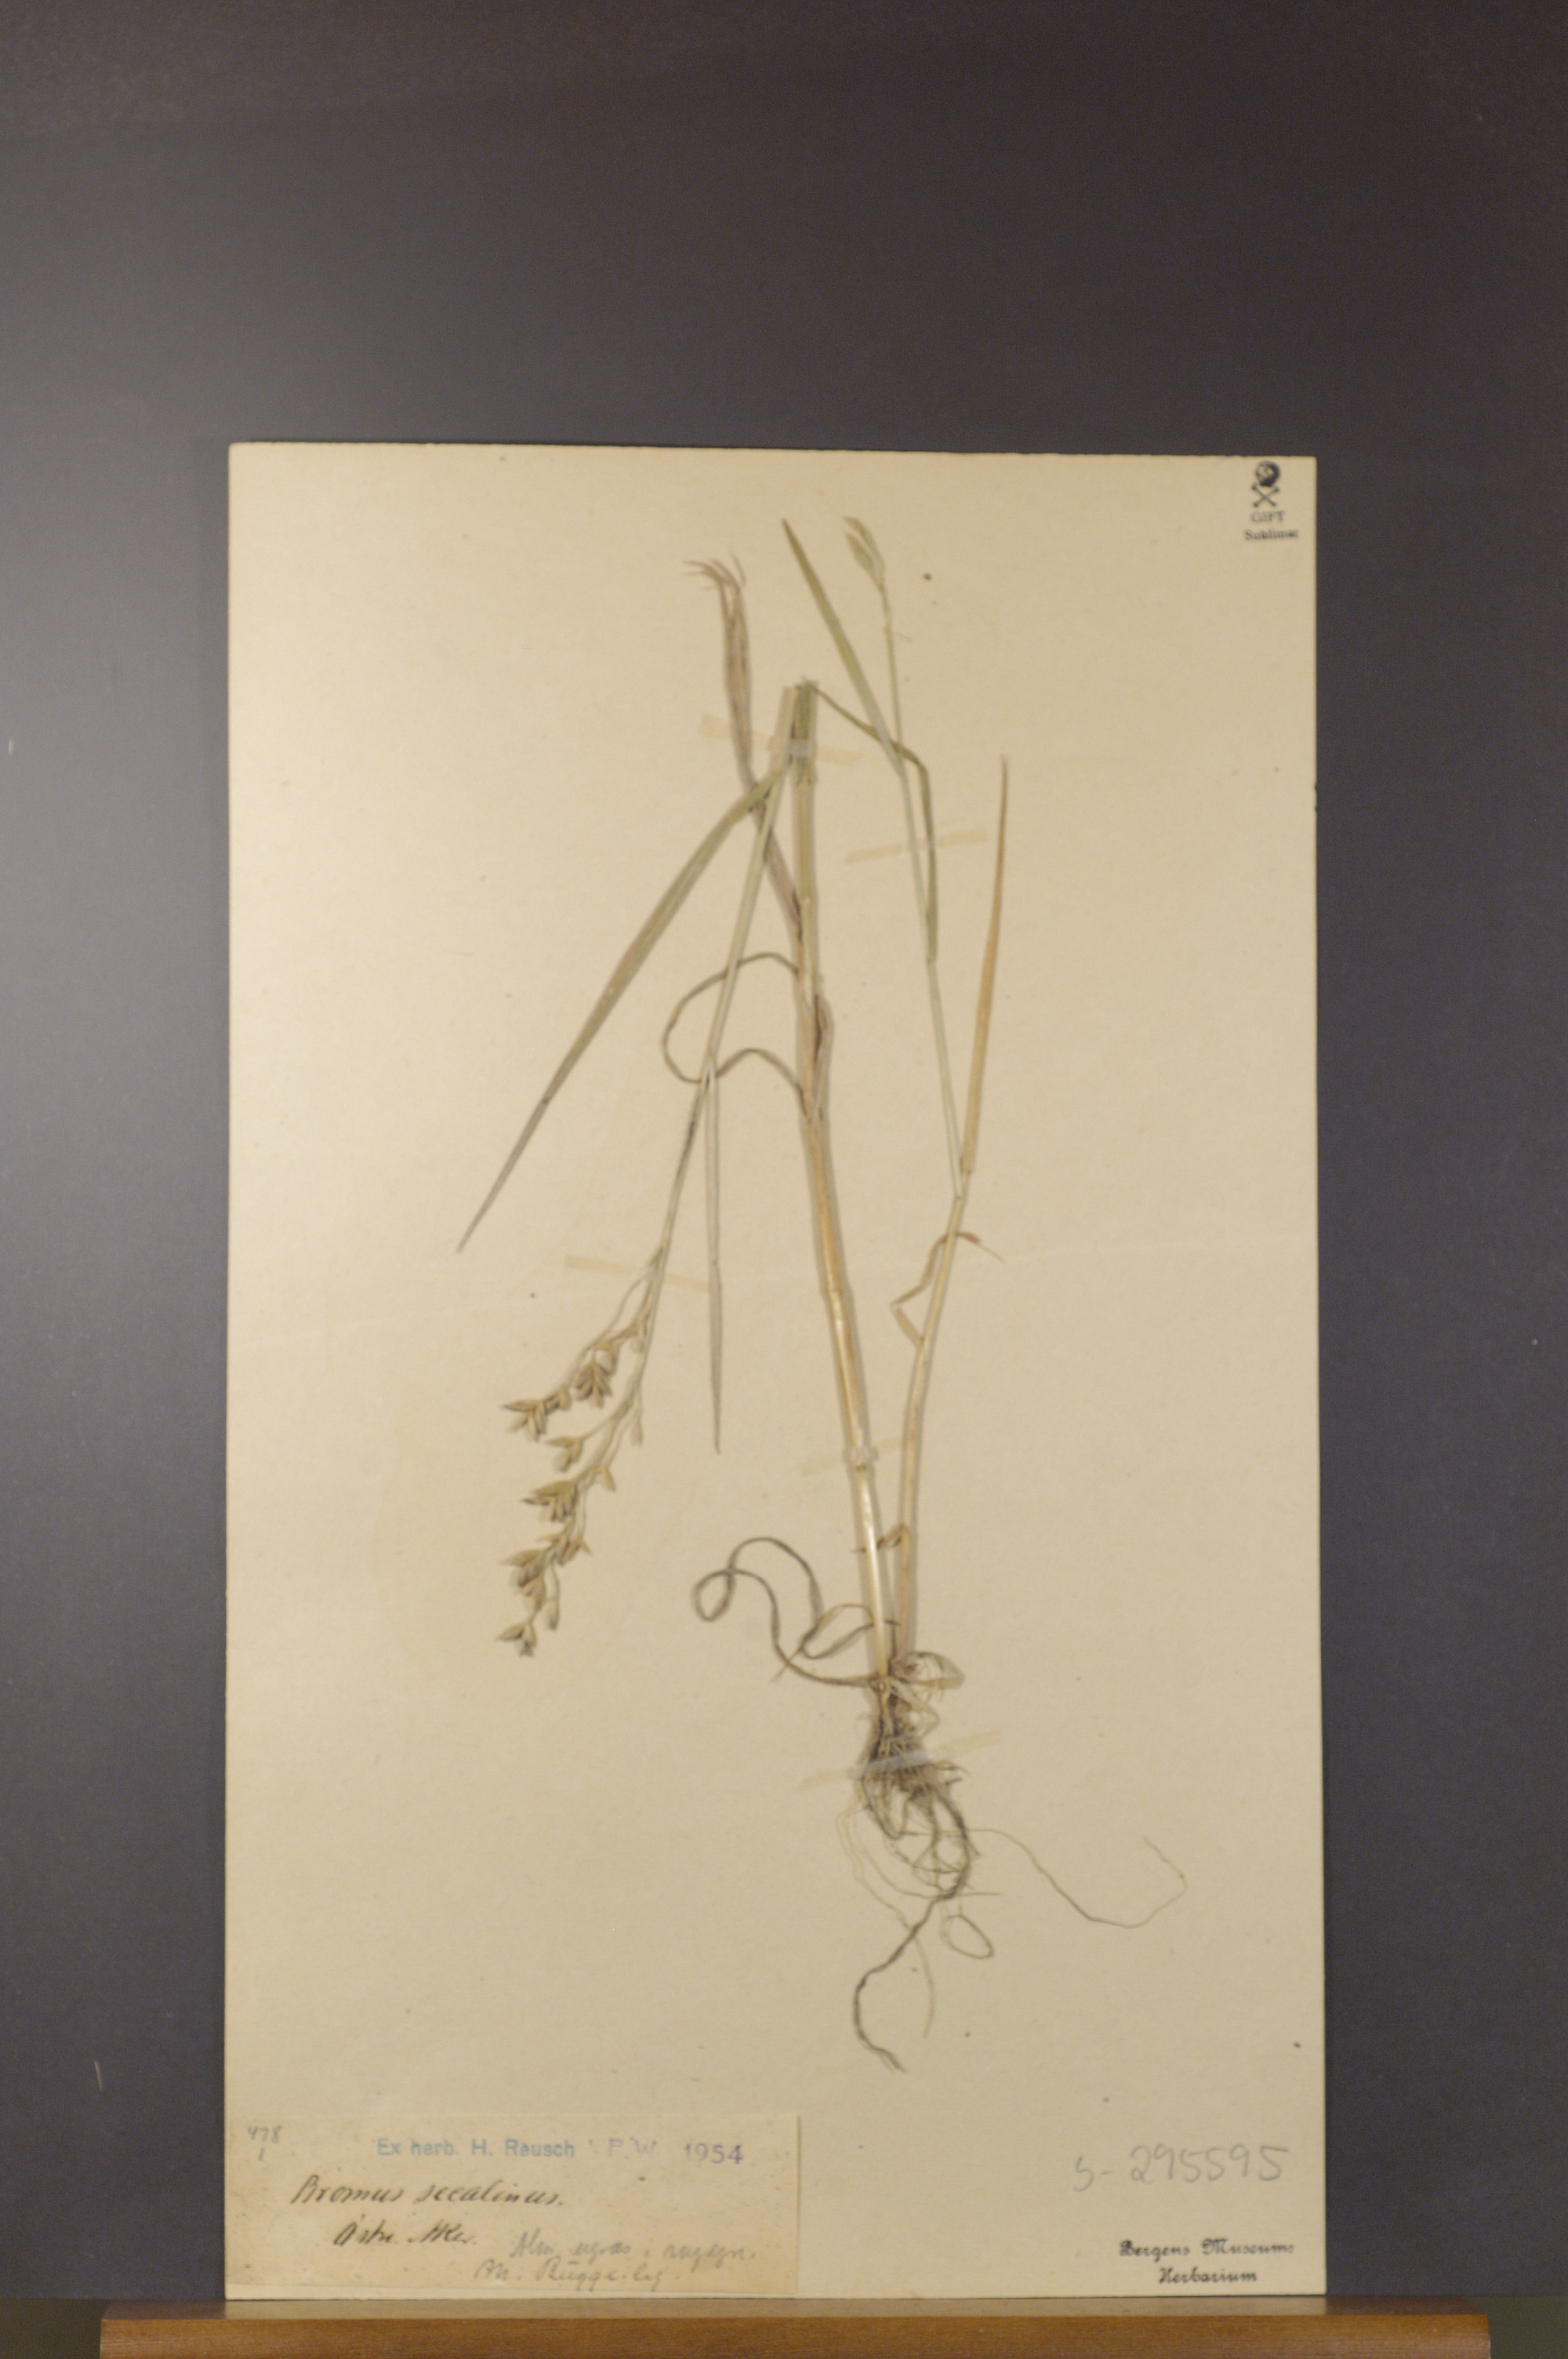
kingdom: Plantae
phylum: Tracheophyta
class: Liliopsida
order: Poales
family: Poaceae
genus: Bromus
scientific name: Bromus secalinus
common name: Rye brome
